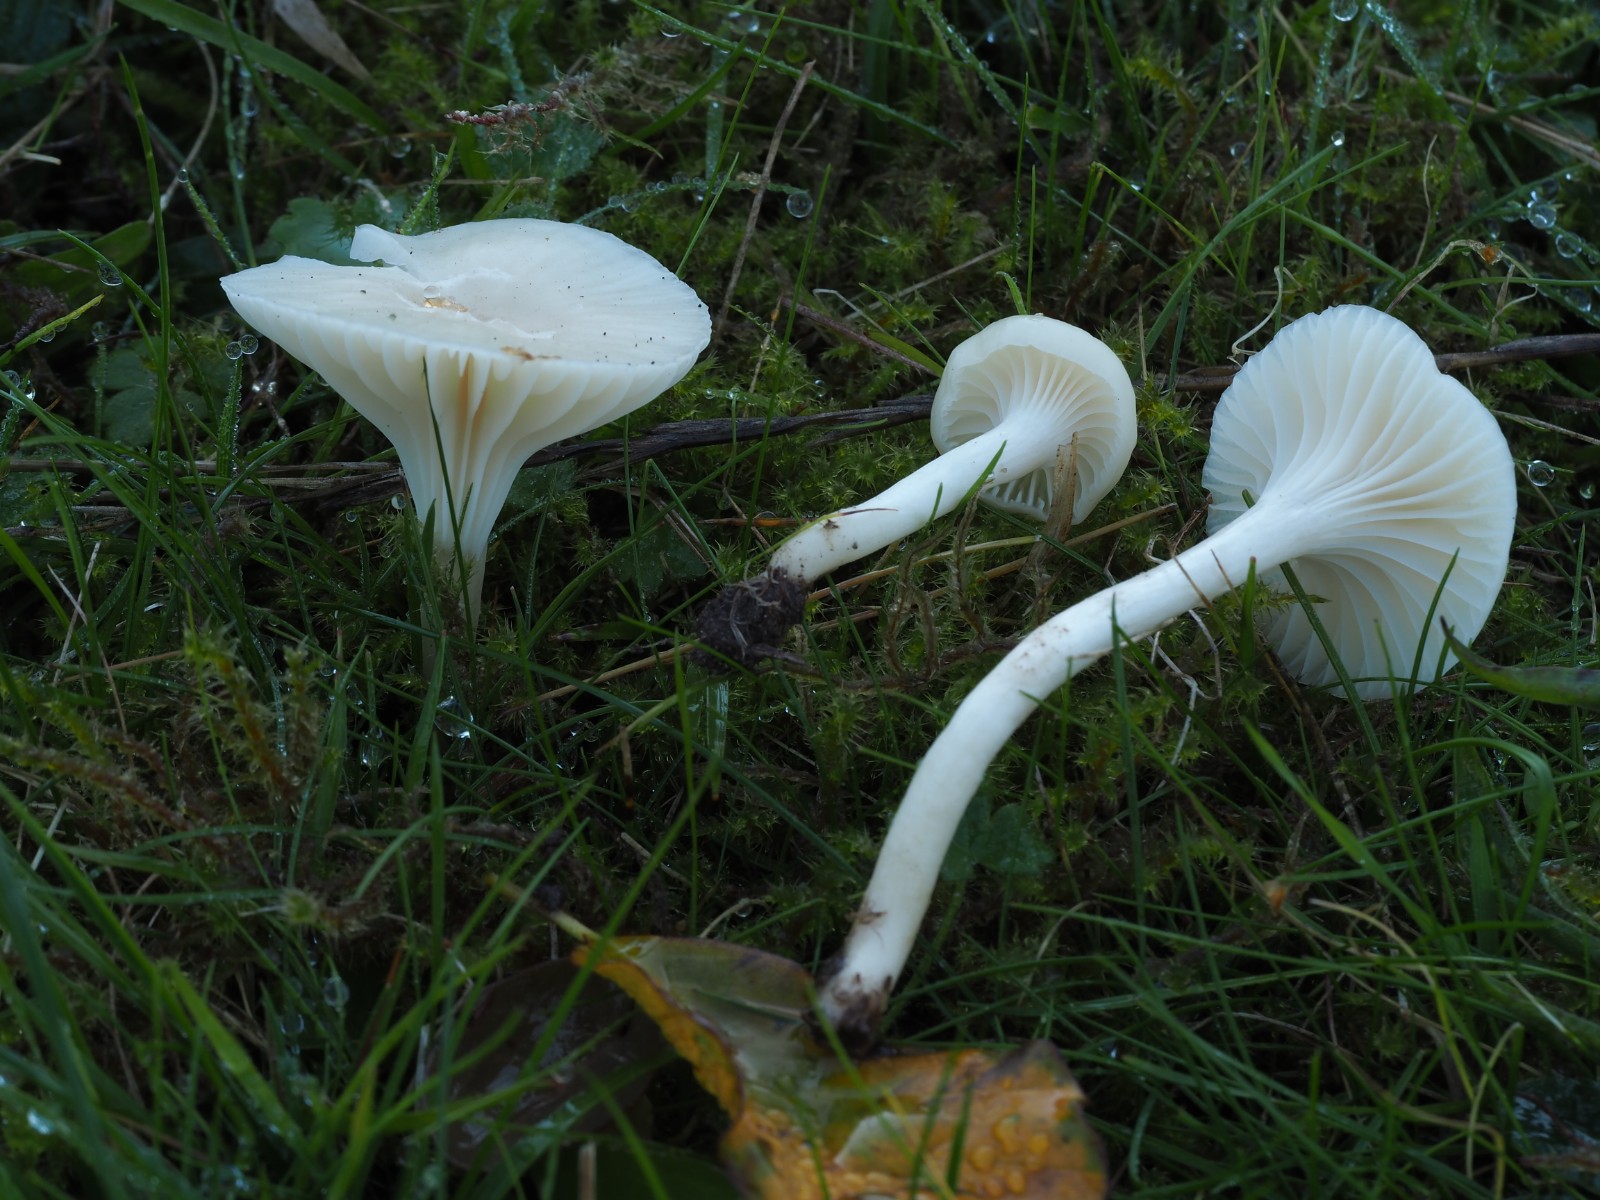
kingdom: Fungi
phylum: Basidiomycota
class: Agaricomycetes
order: Agaricales
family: Hygrophoraceae
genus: Cuphophyllus
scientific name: Cuphophyllus virgineus
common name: snehvid vokshat
